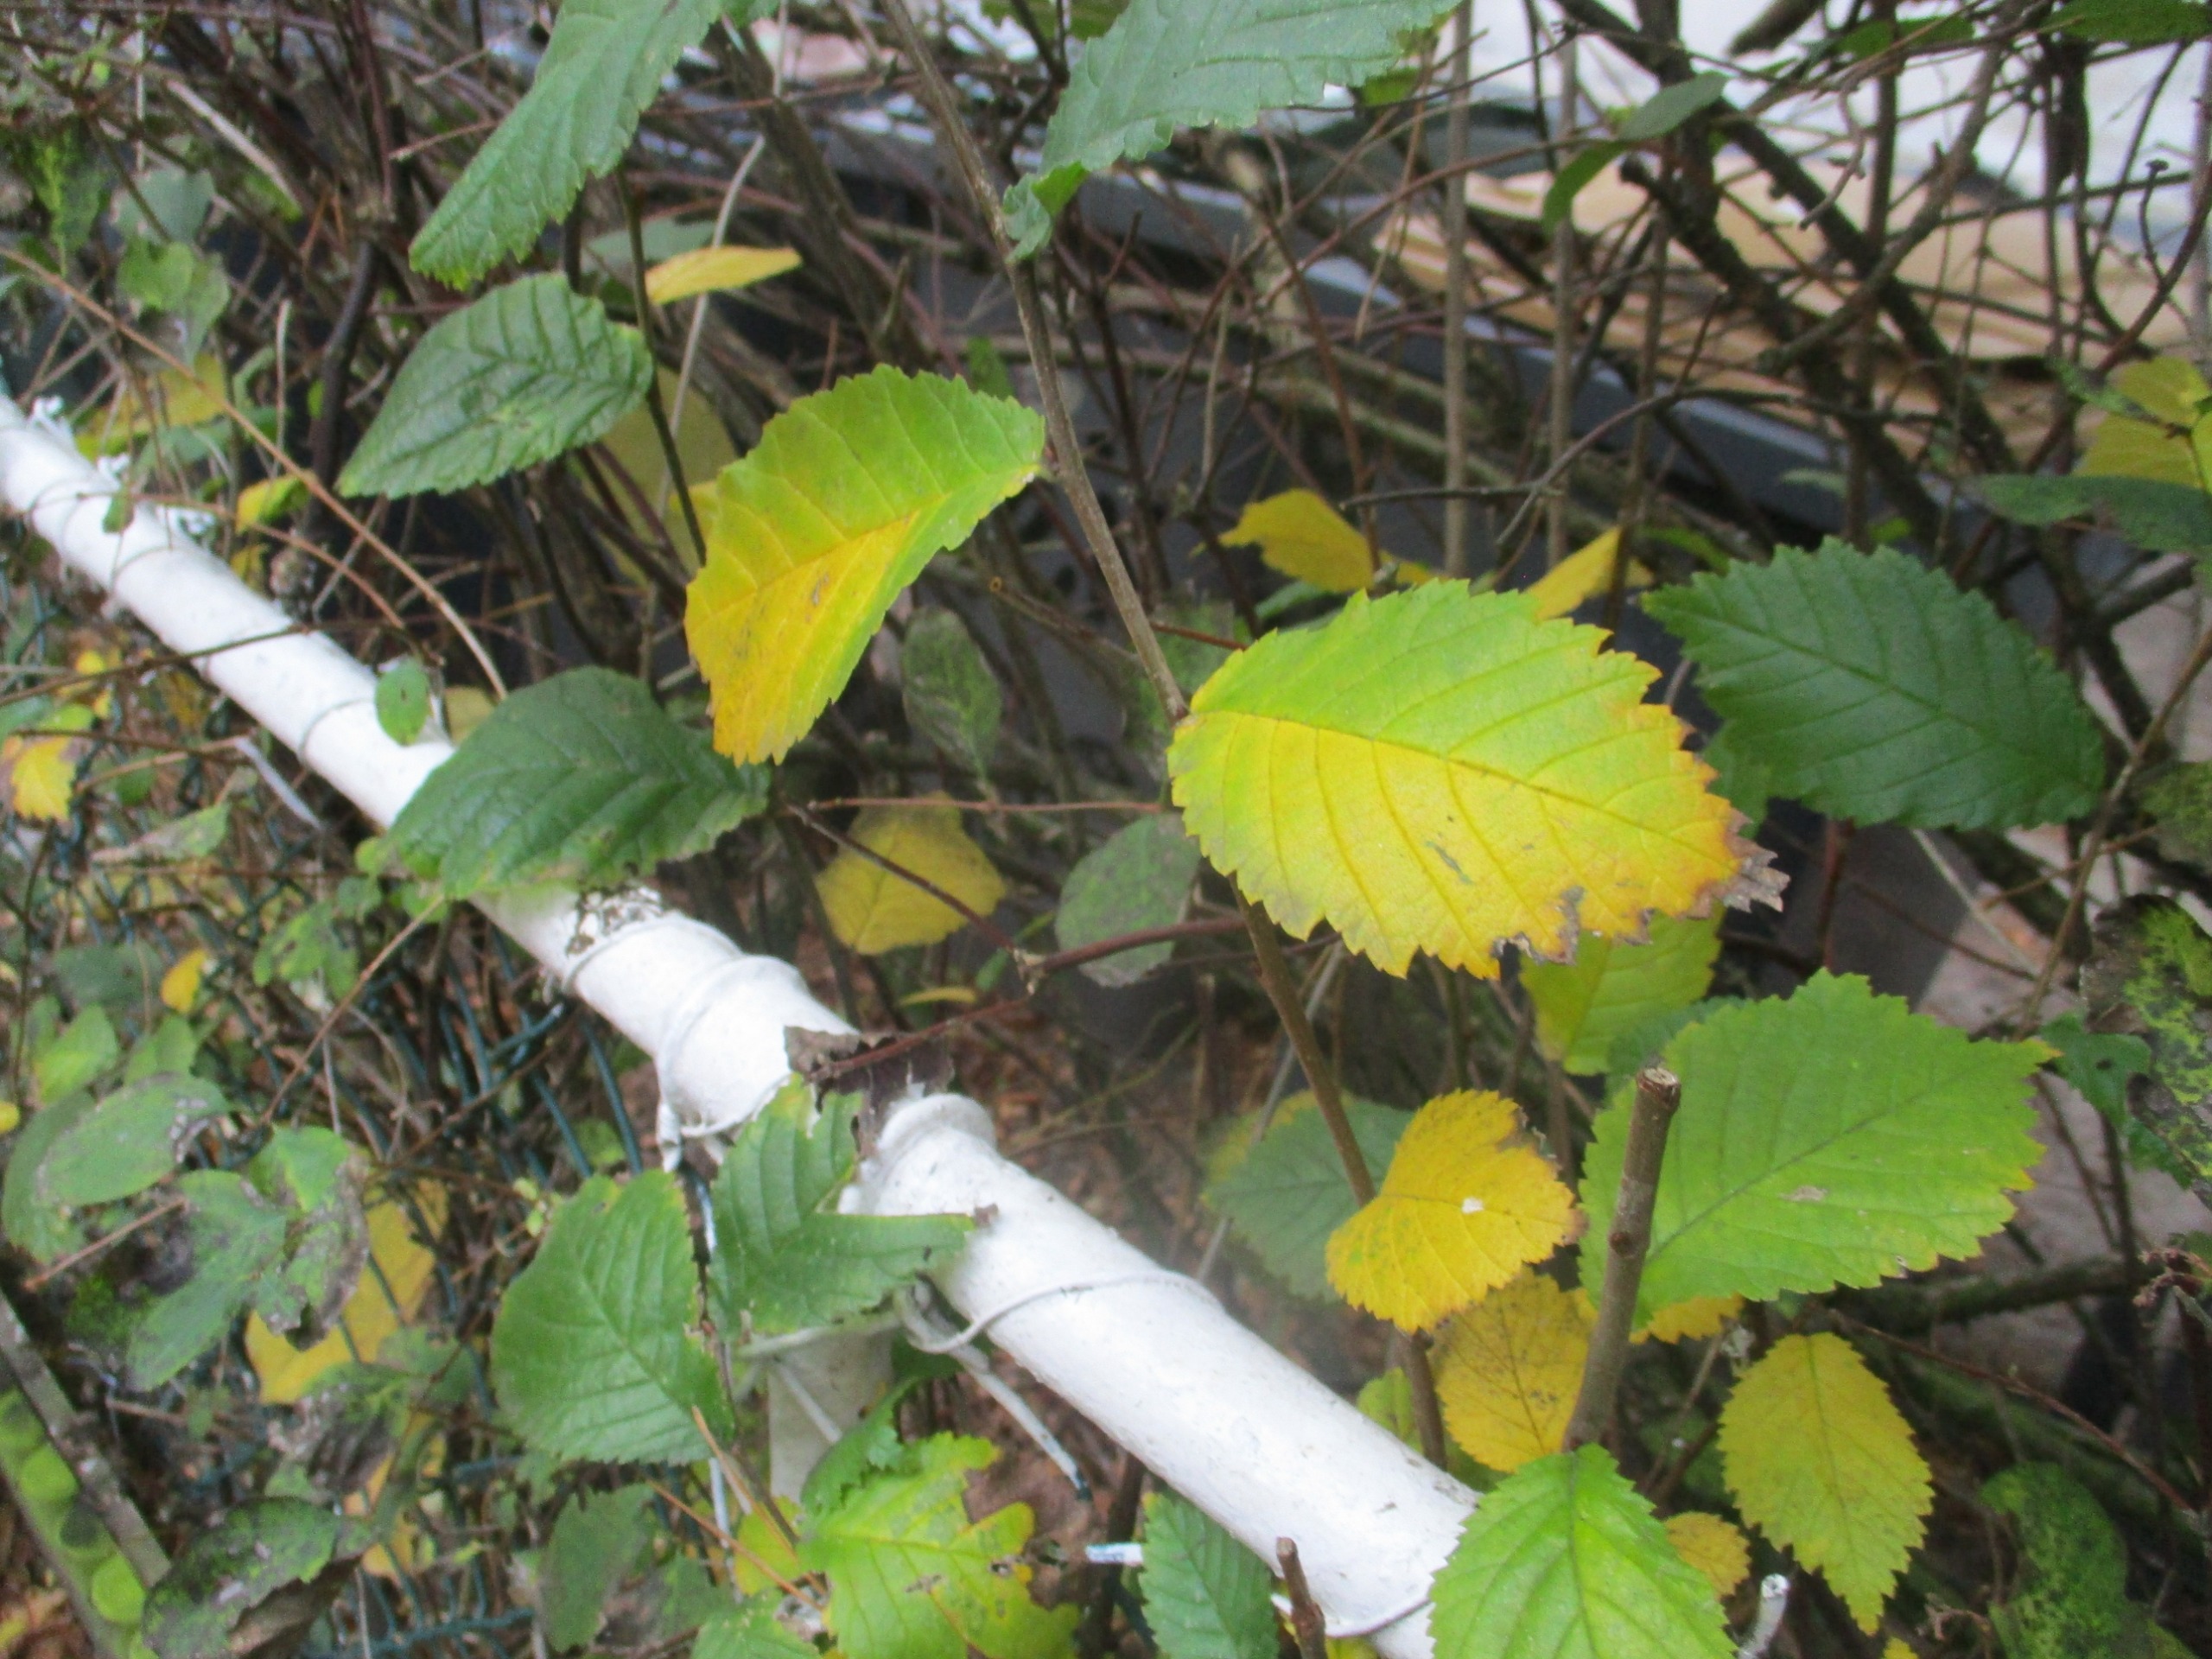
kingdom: Plantae
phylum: Tracheophyta
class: Magnoliopsida
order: Rosales
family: Ulmaceae
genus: Ulmus
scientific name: Ulmus glabra
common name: Skov-elm/storbladet elm
